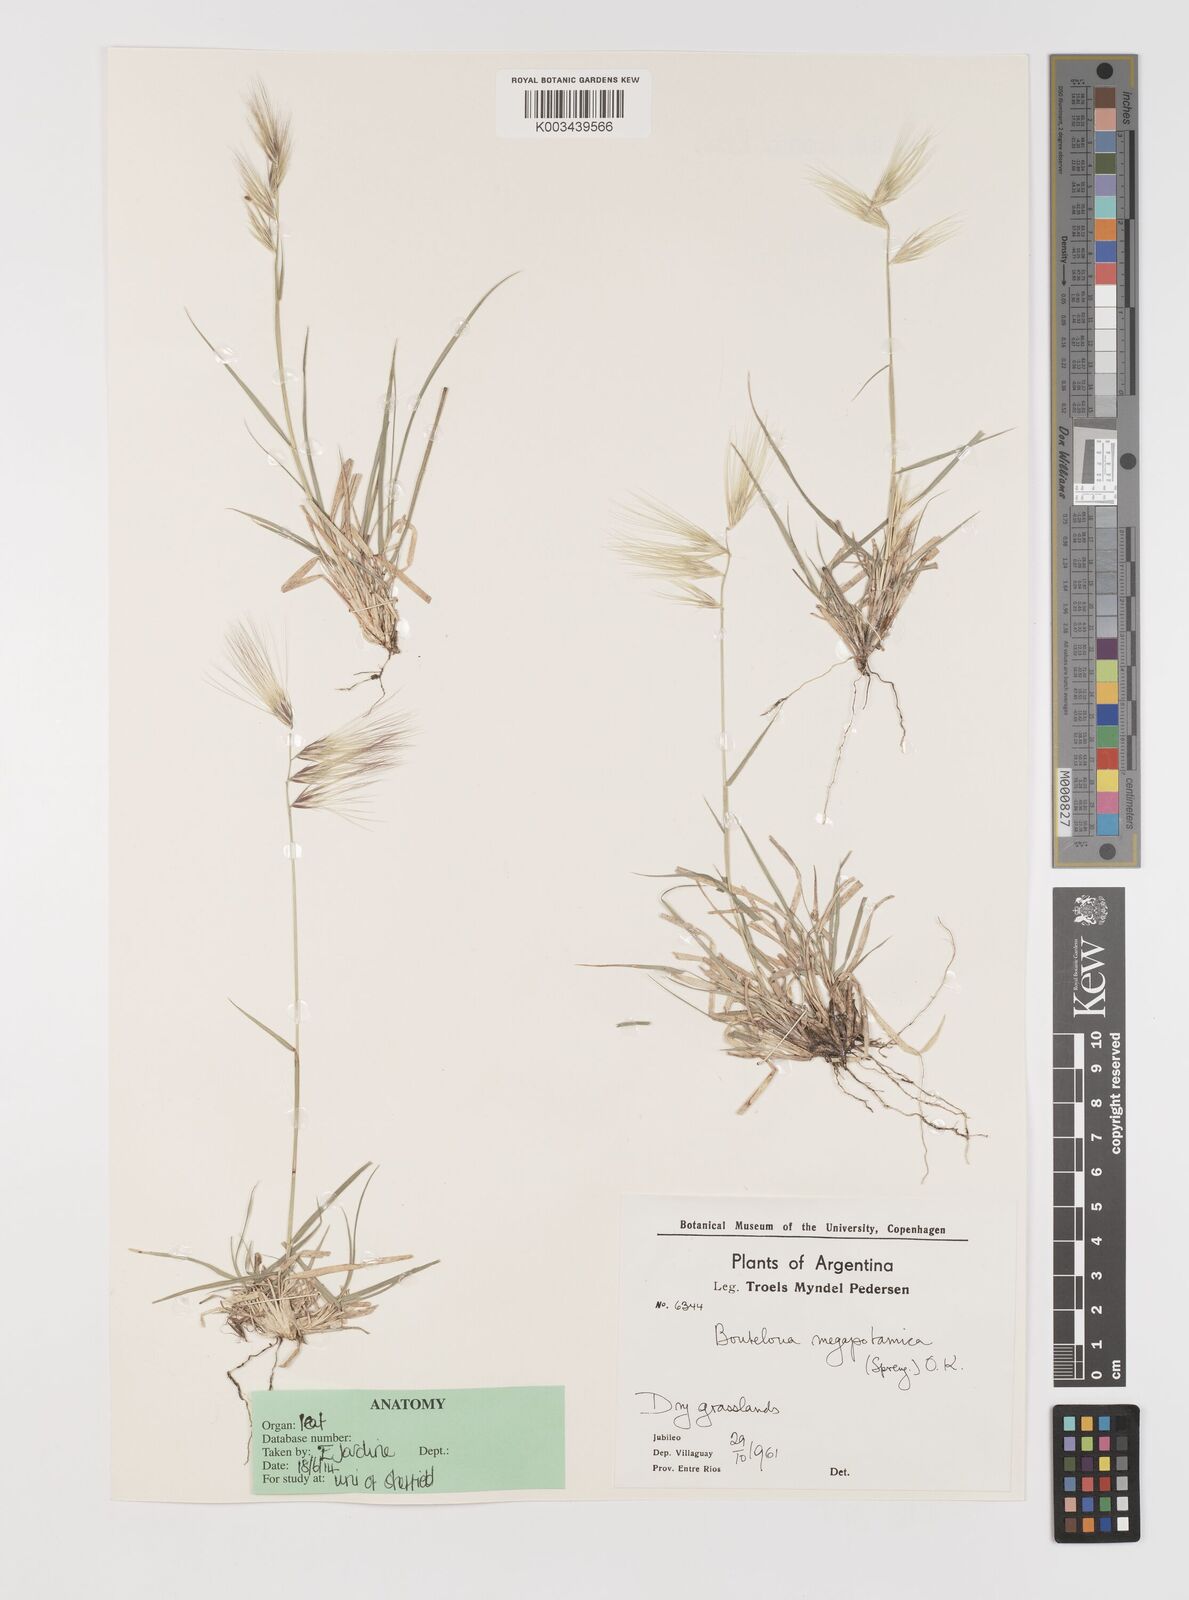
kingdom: Plantae
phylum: Tracheophyta
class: Liliopsida
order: Poales
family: Poaceae
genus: Bouteloua
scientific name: Bouteloua megapotamica
